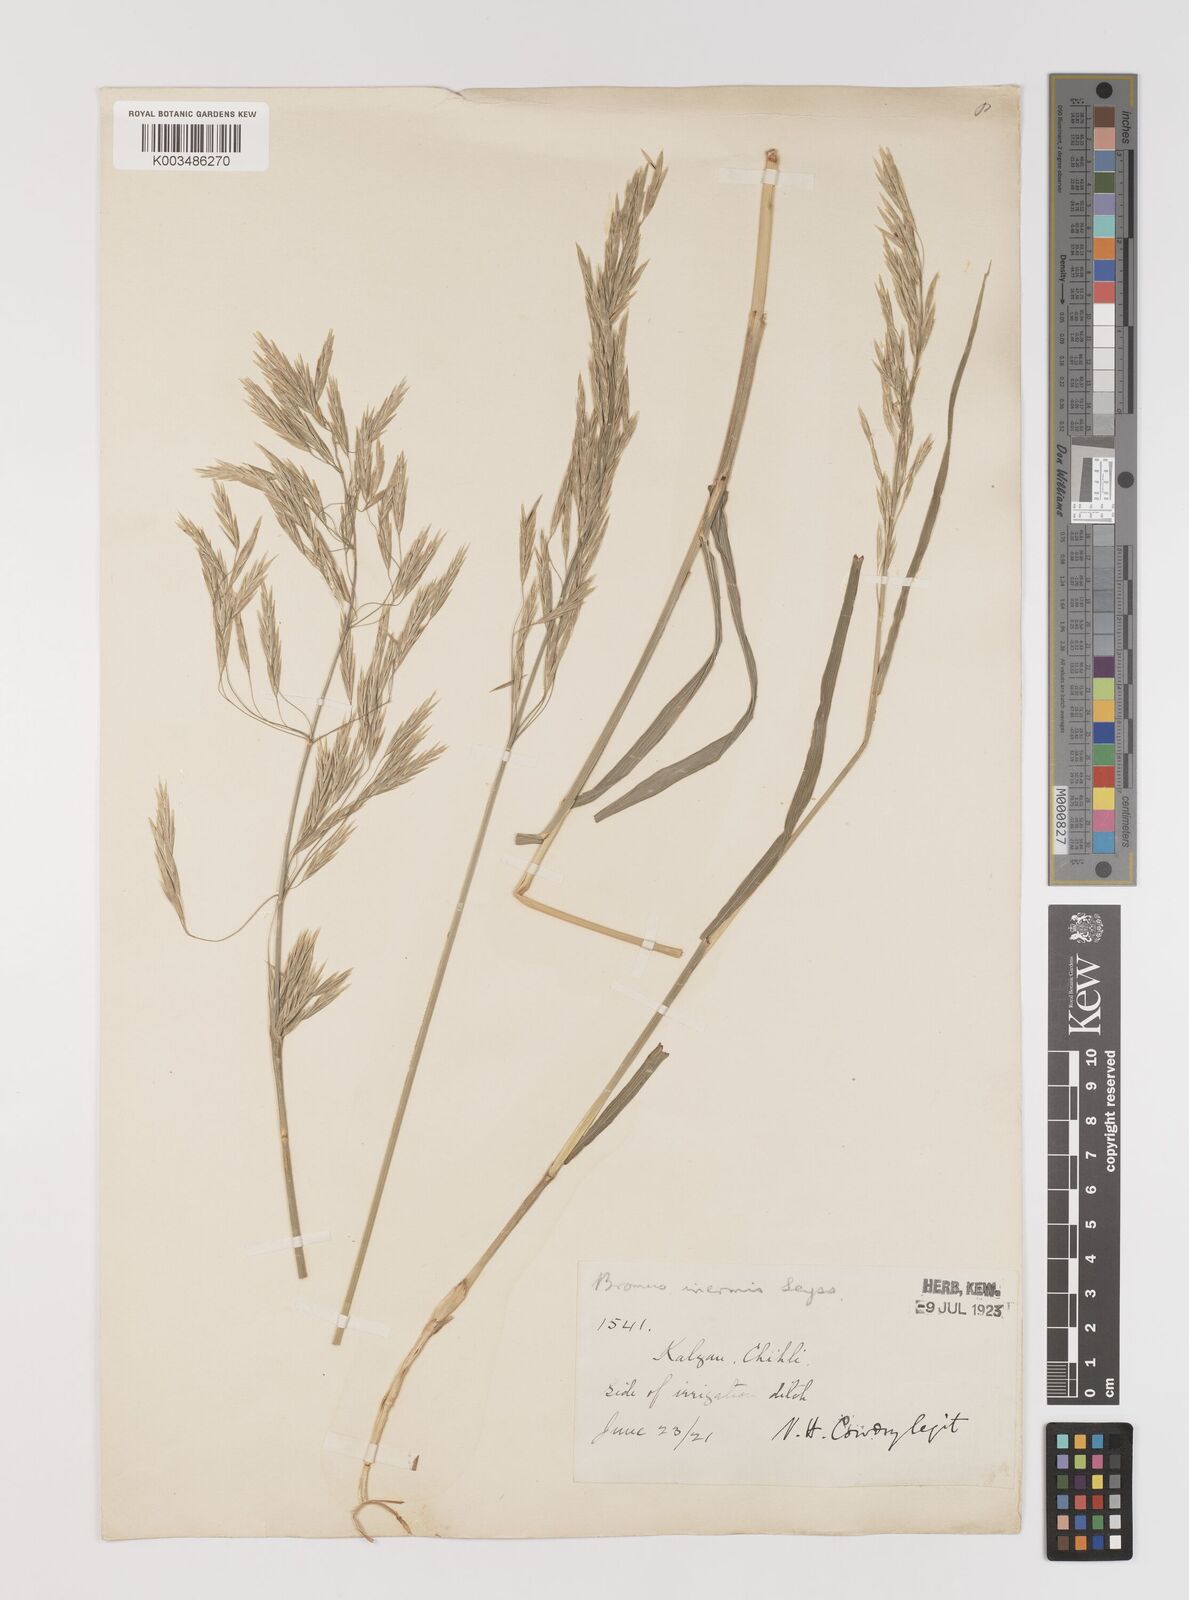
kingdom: Plantae
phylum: Tracheophyta
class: Liliopsida
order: Poales
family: Poaceae
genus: Bromus
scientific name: Bromus inermis
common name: Smooth brome
